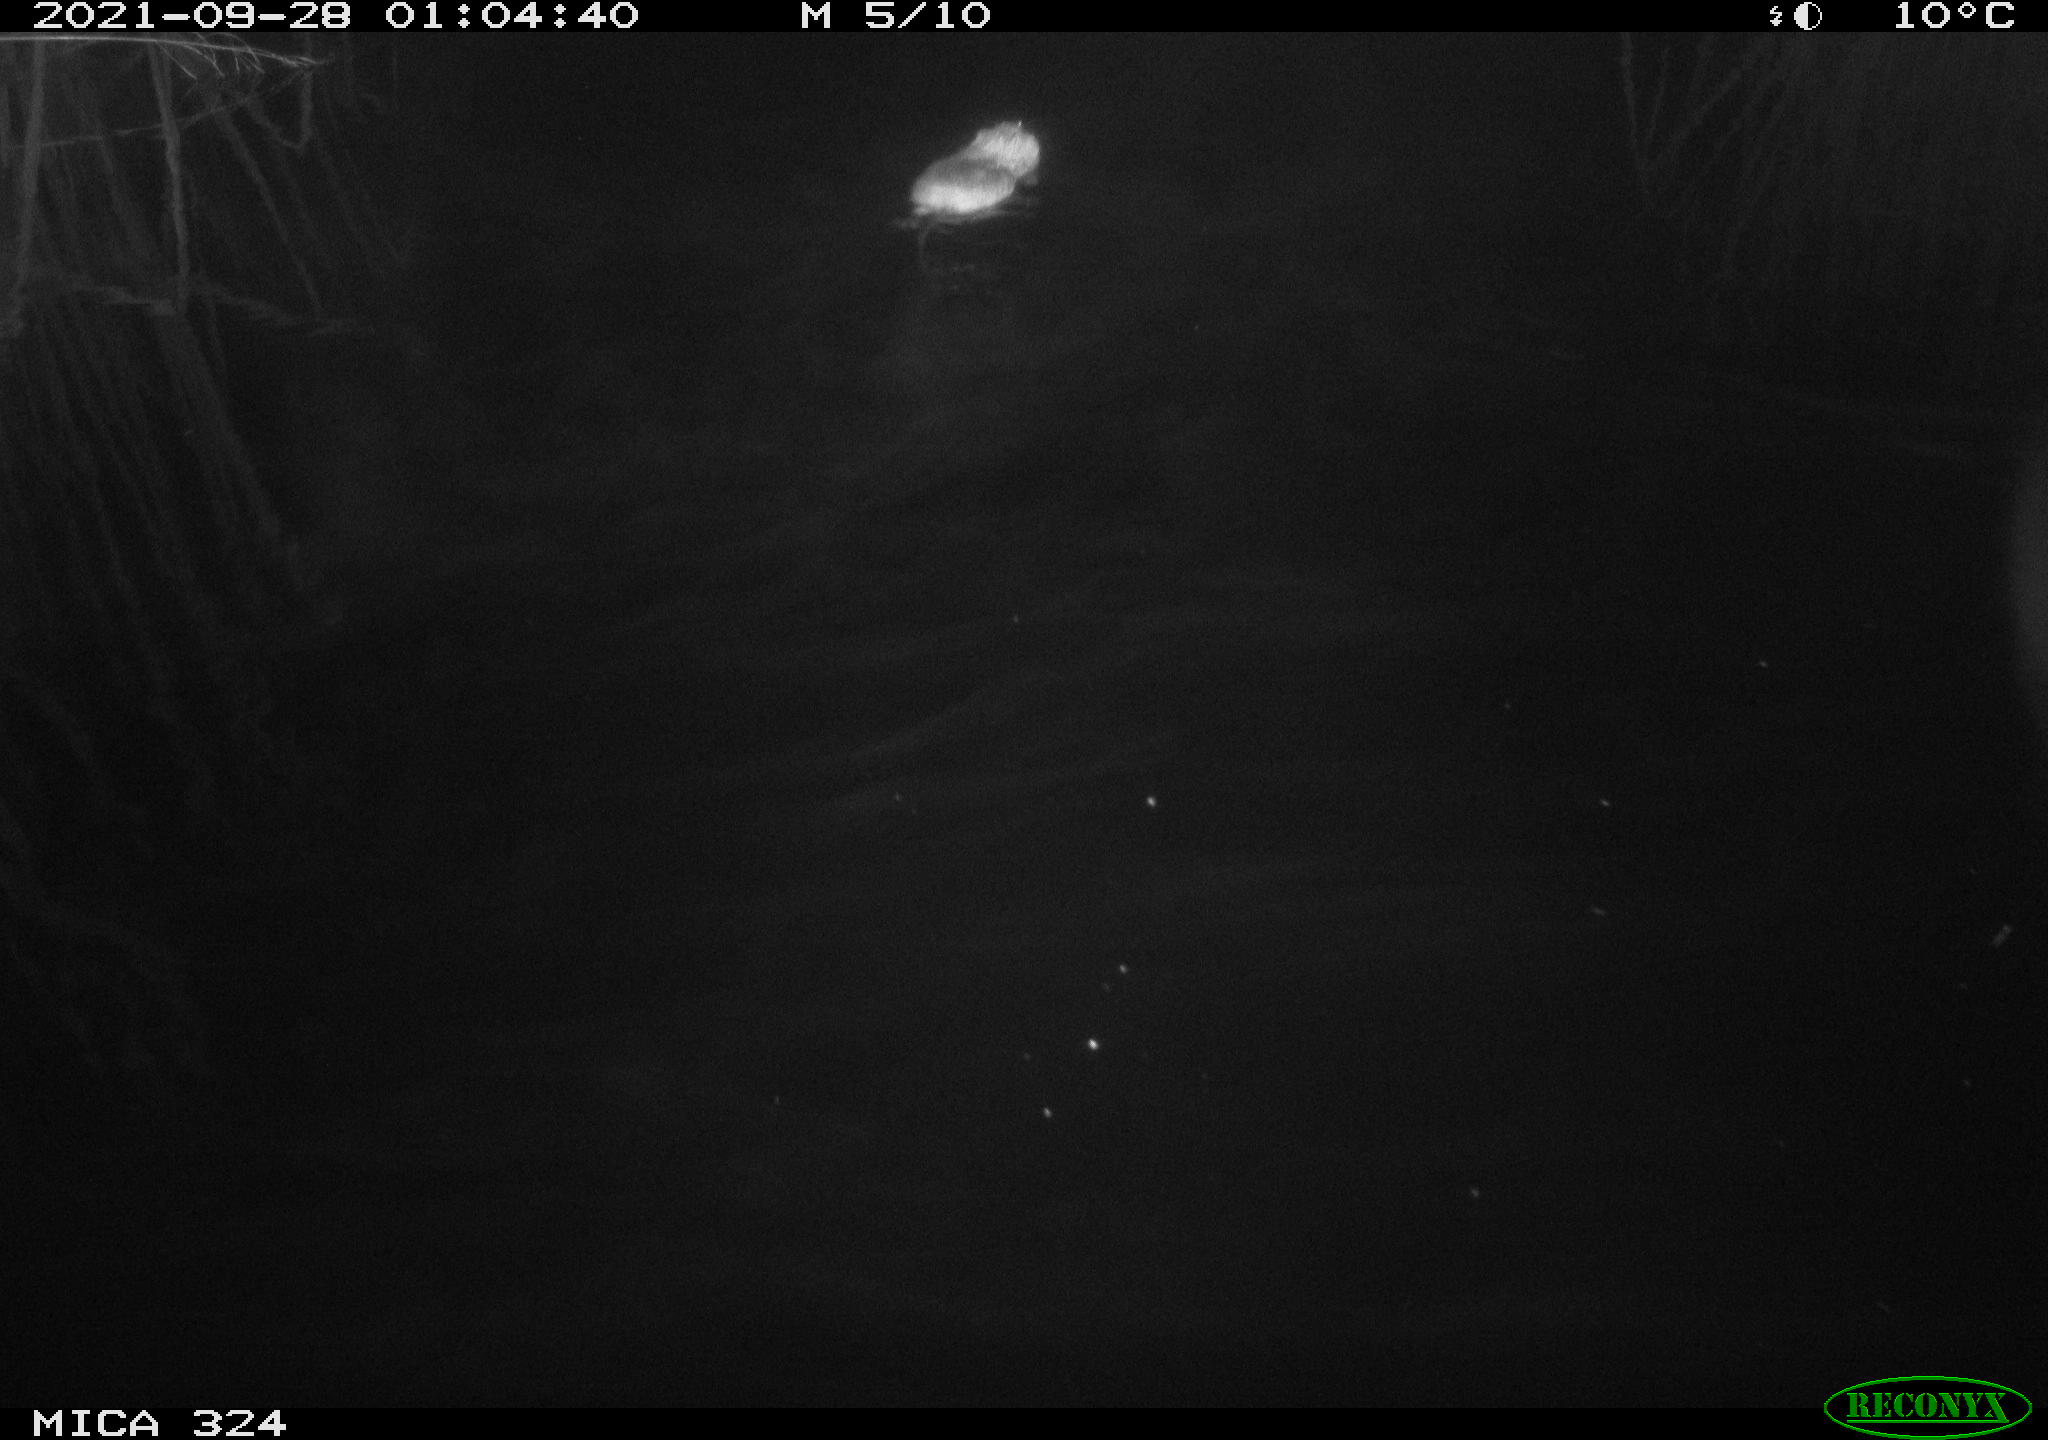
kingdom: Animalia
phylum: Chordata
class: Mammalia
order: Rodentia
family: Cricetidae
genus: Ondatra
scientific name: Ondatra zibethicus
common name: Muskrat
